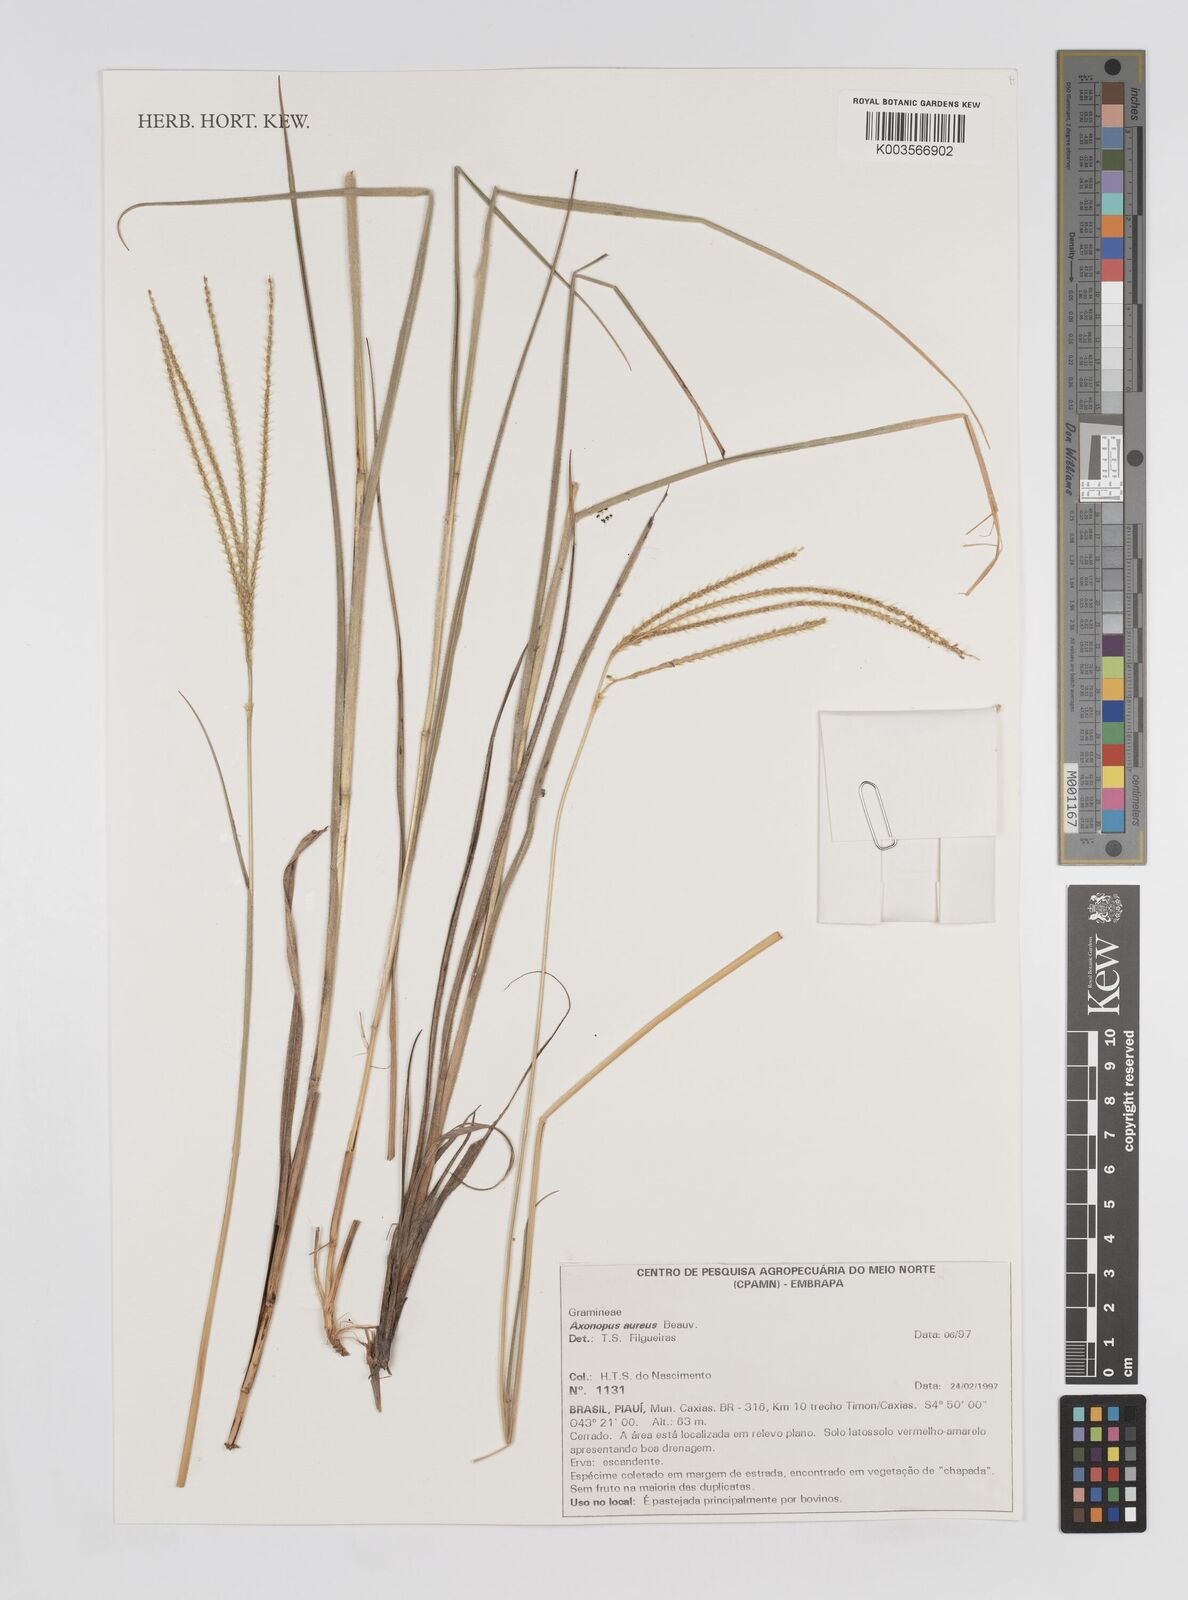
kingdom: Plantae
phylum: Tracheophyta
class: Liliopsida
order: Poales
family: Poaceae
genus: Axonopus
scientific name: Axonopus aureus
